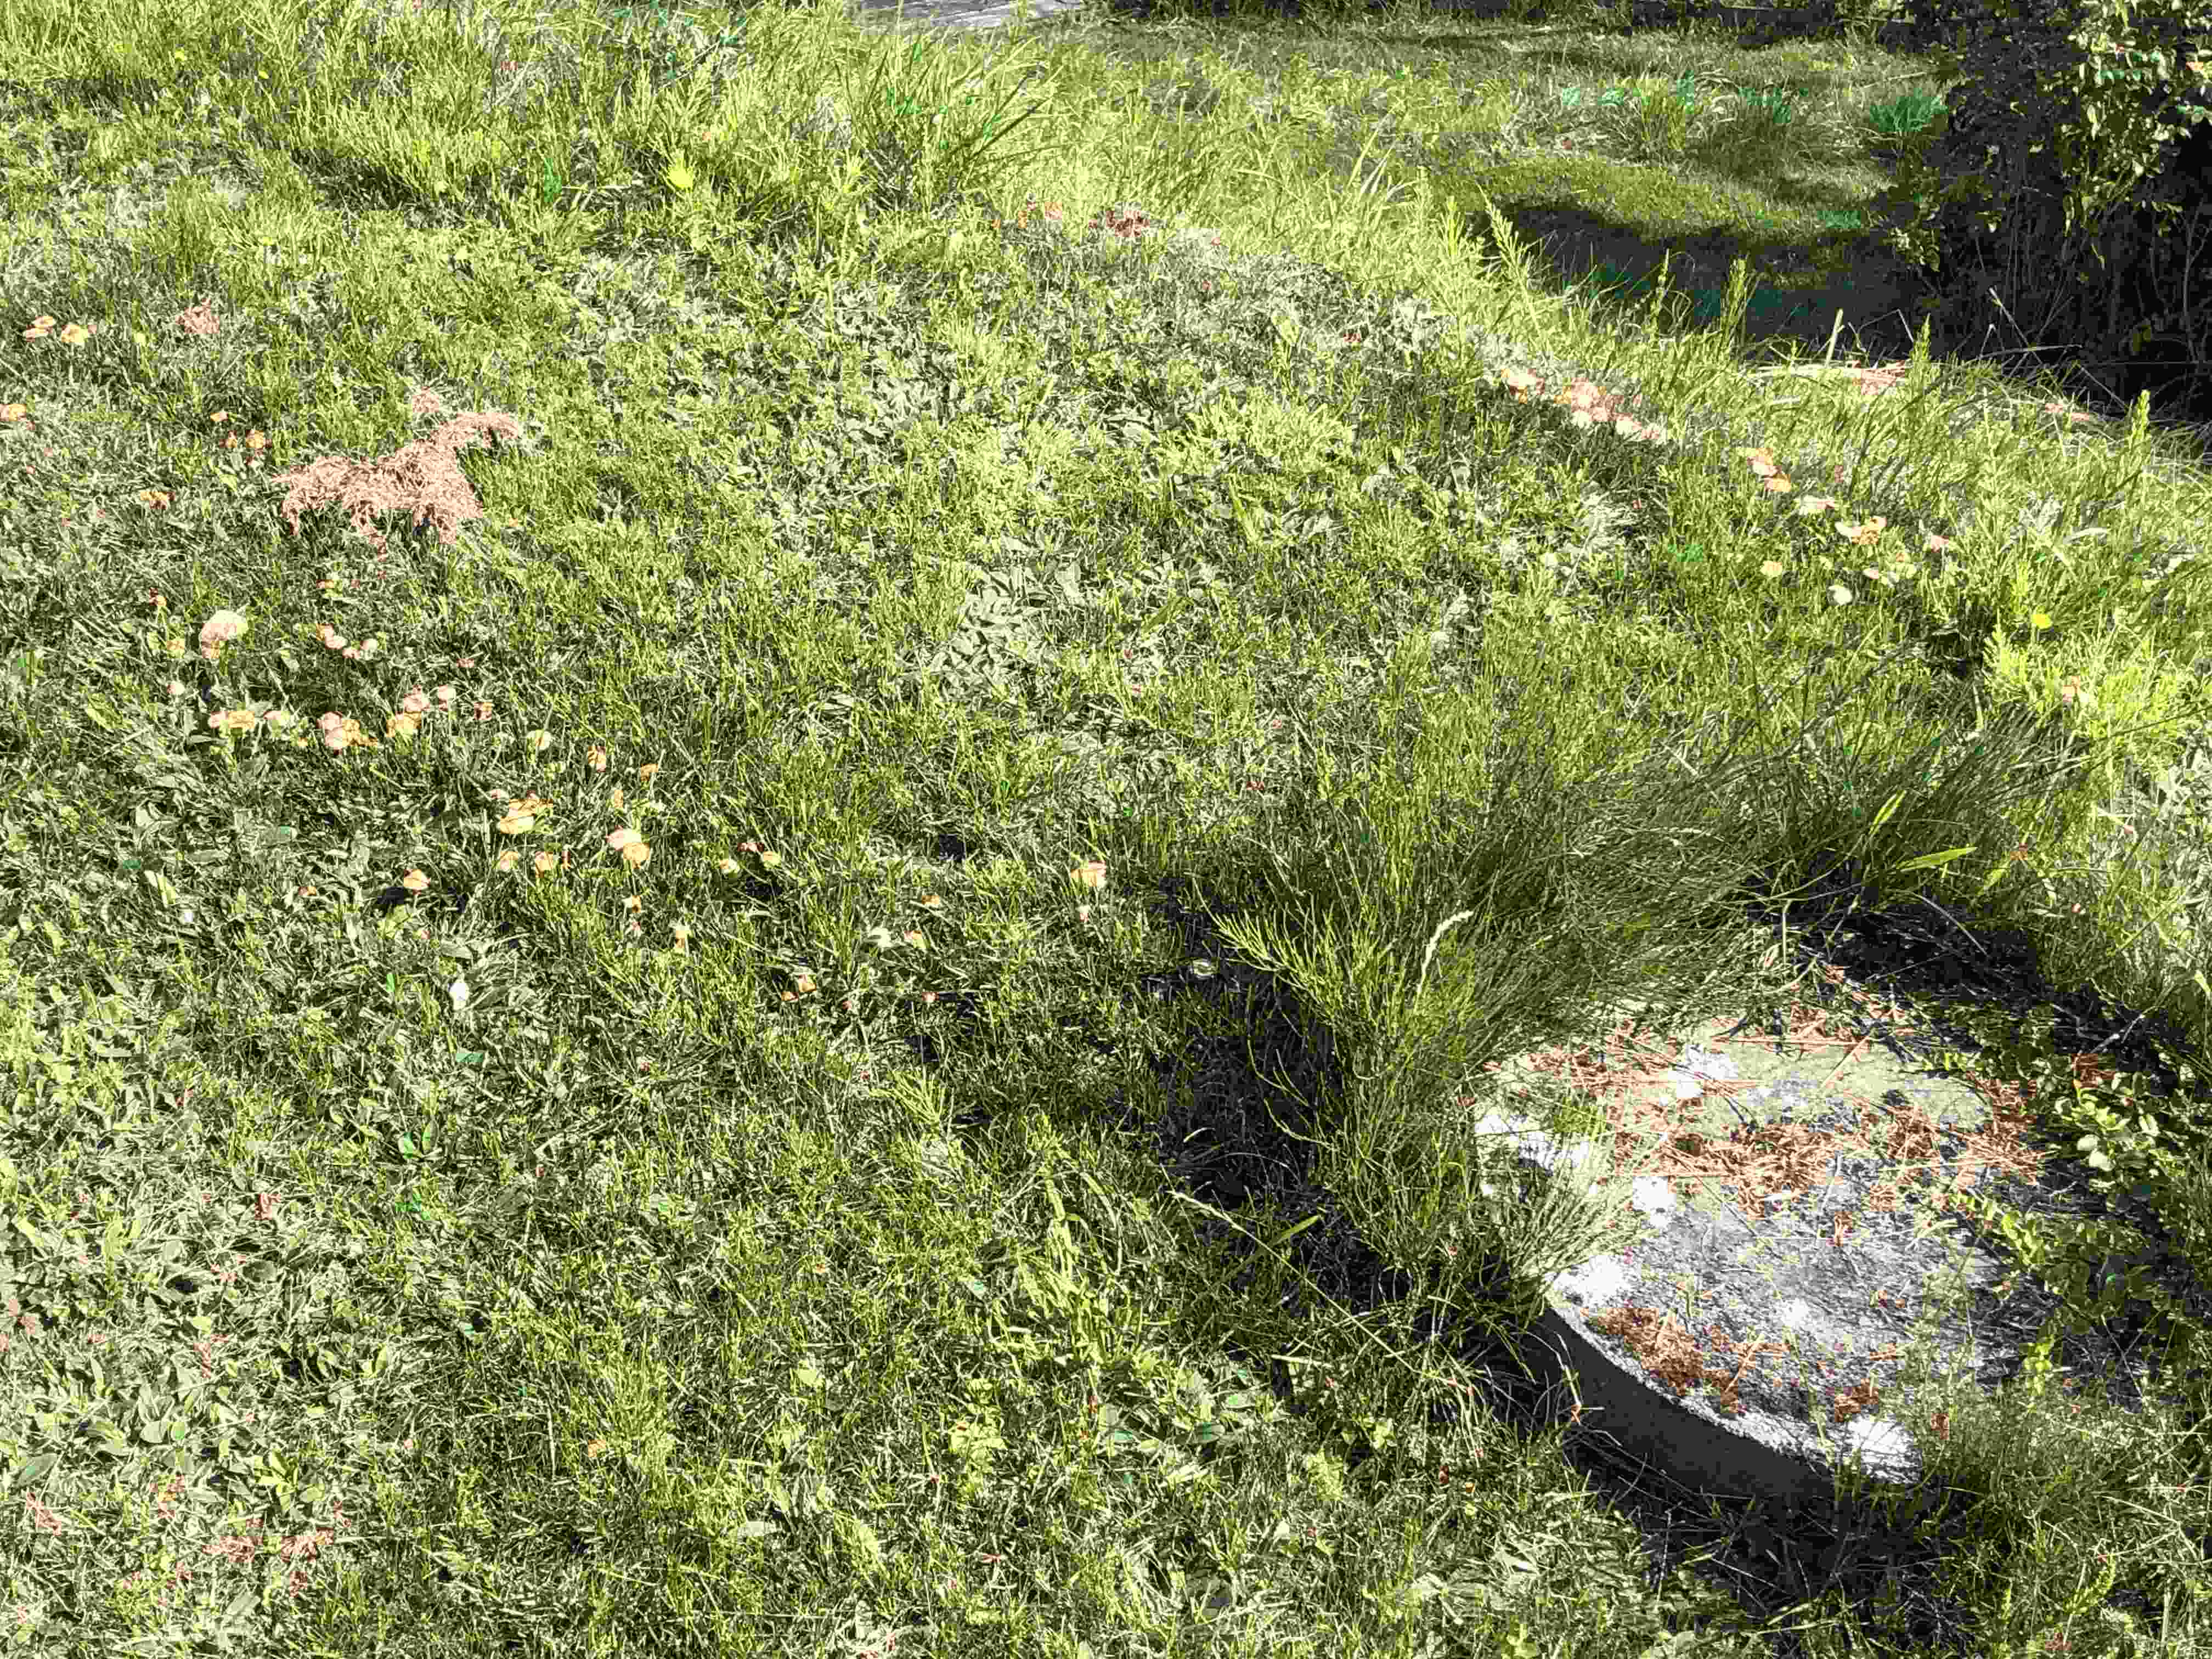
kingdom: Fungi
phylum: Basidiomycota
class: Agaricomycetes
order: Agaricales
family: Marasmiaceae
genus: Marasmius
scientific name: Marasmius oreades
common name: elledans-bruskhat
